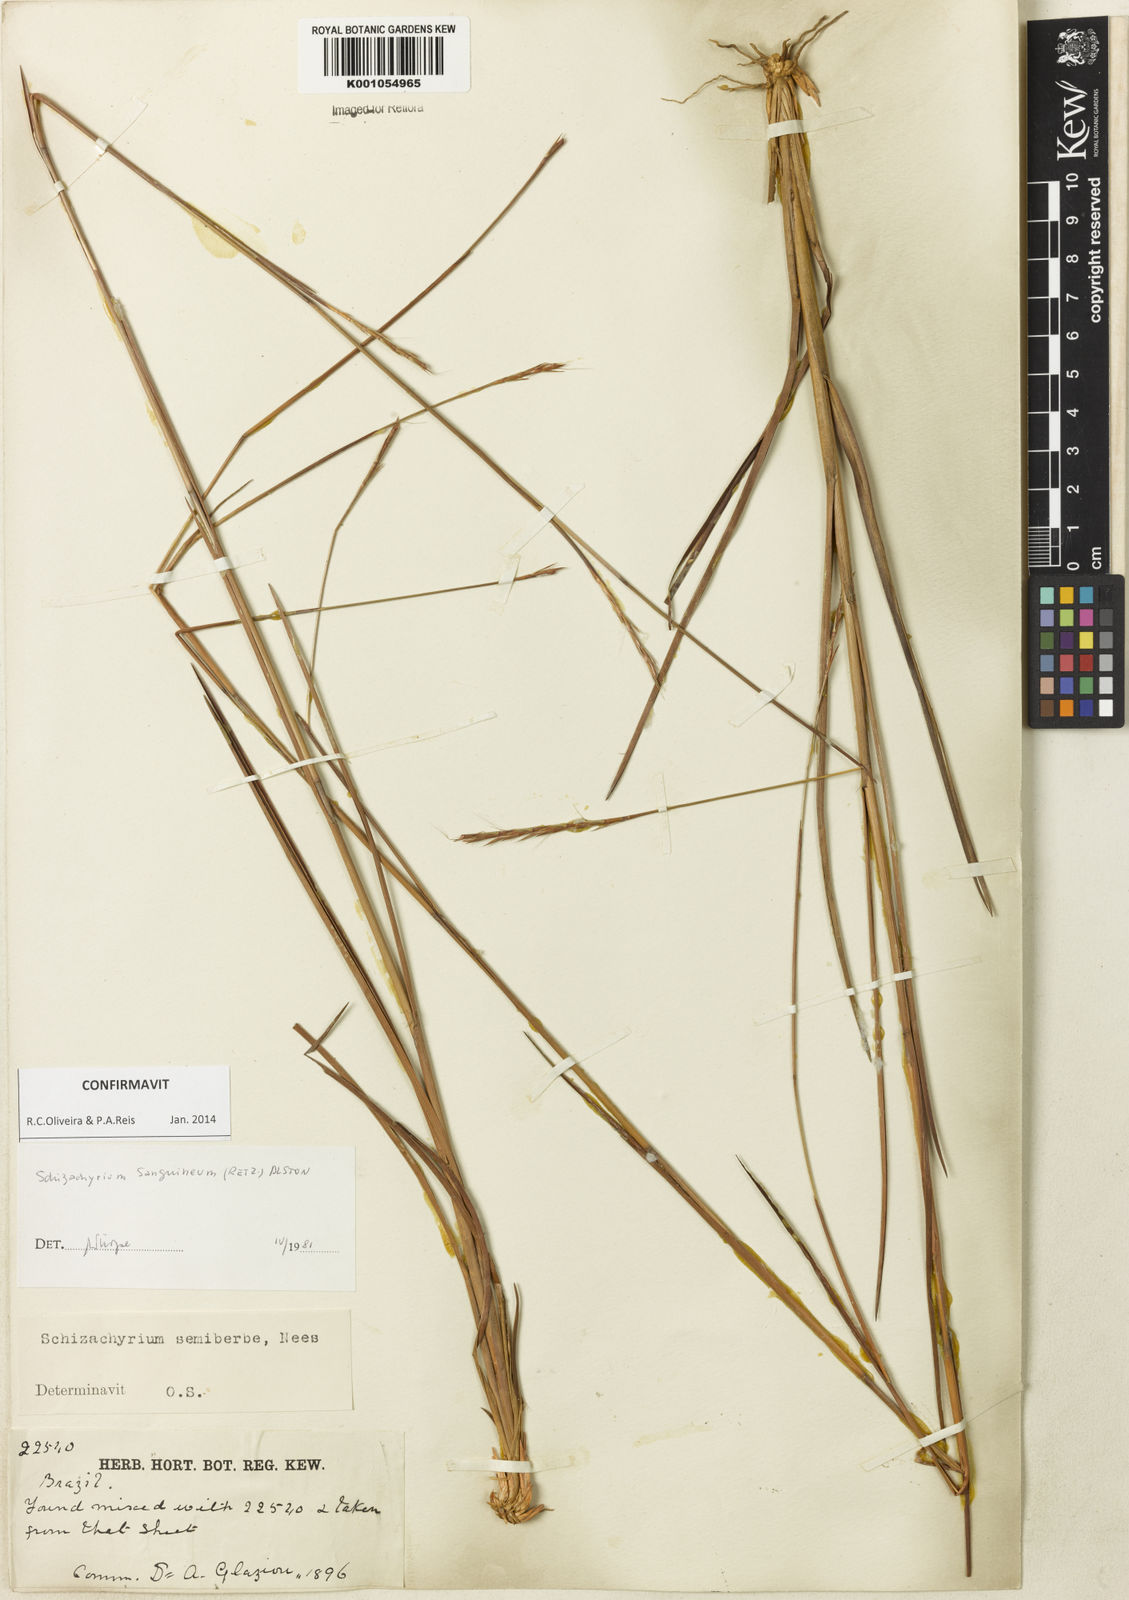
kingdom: Plantae
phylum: Tracheophyta
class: Liliopsida
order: Poales
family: Poaceae
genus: Schizachyrium
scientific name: Schizachyrium sanguineum
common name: Crimson bluestem
